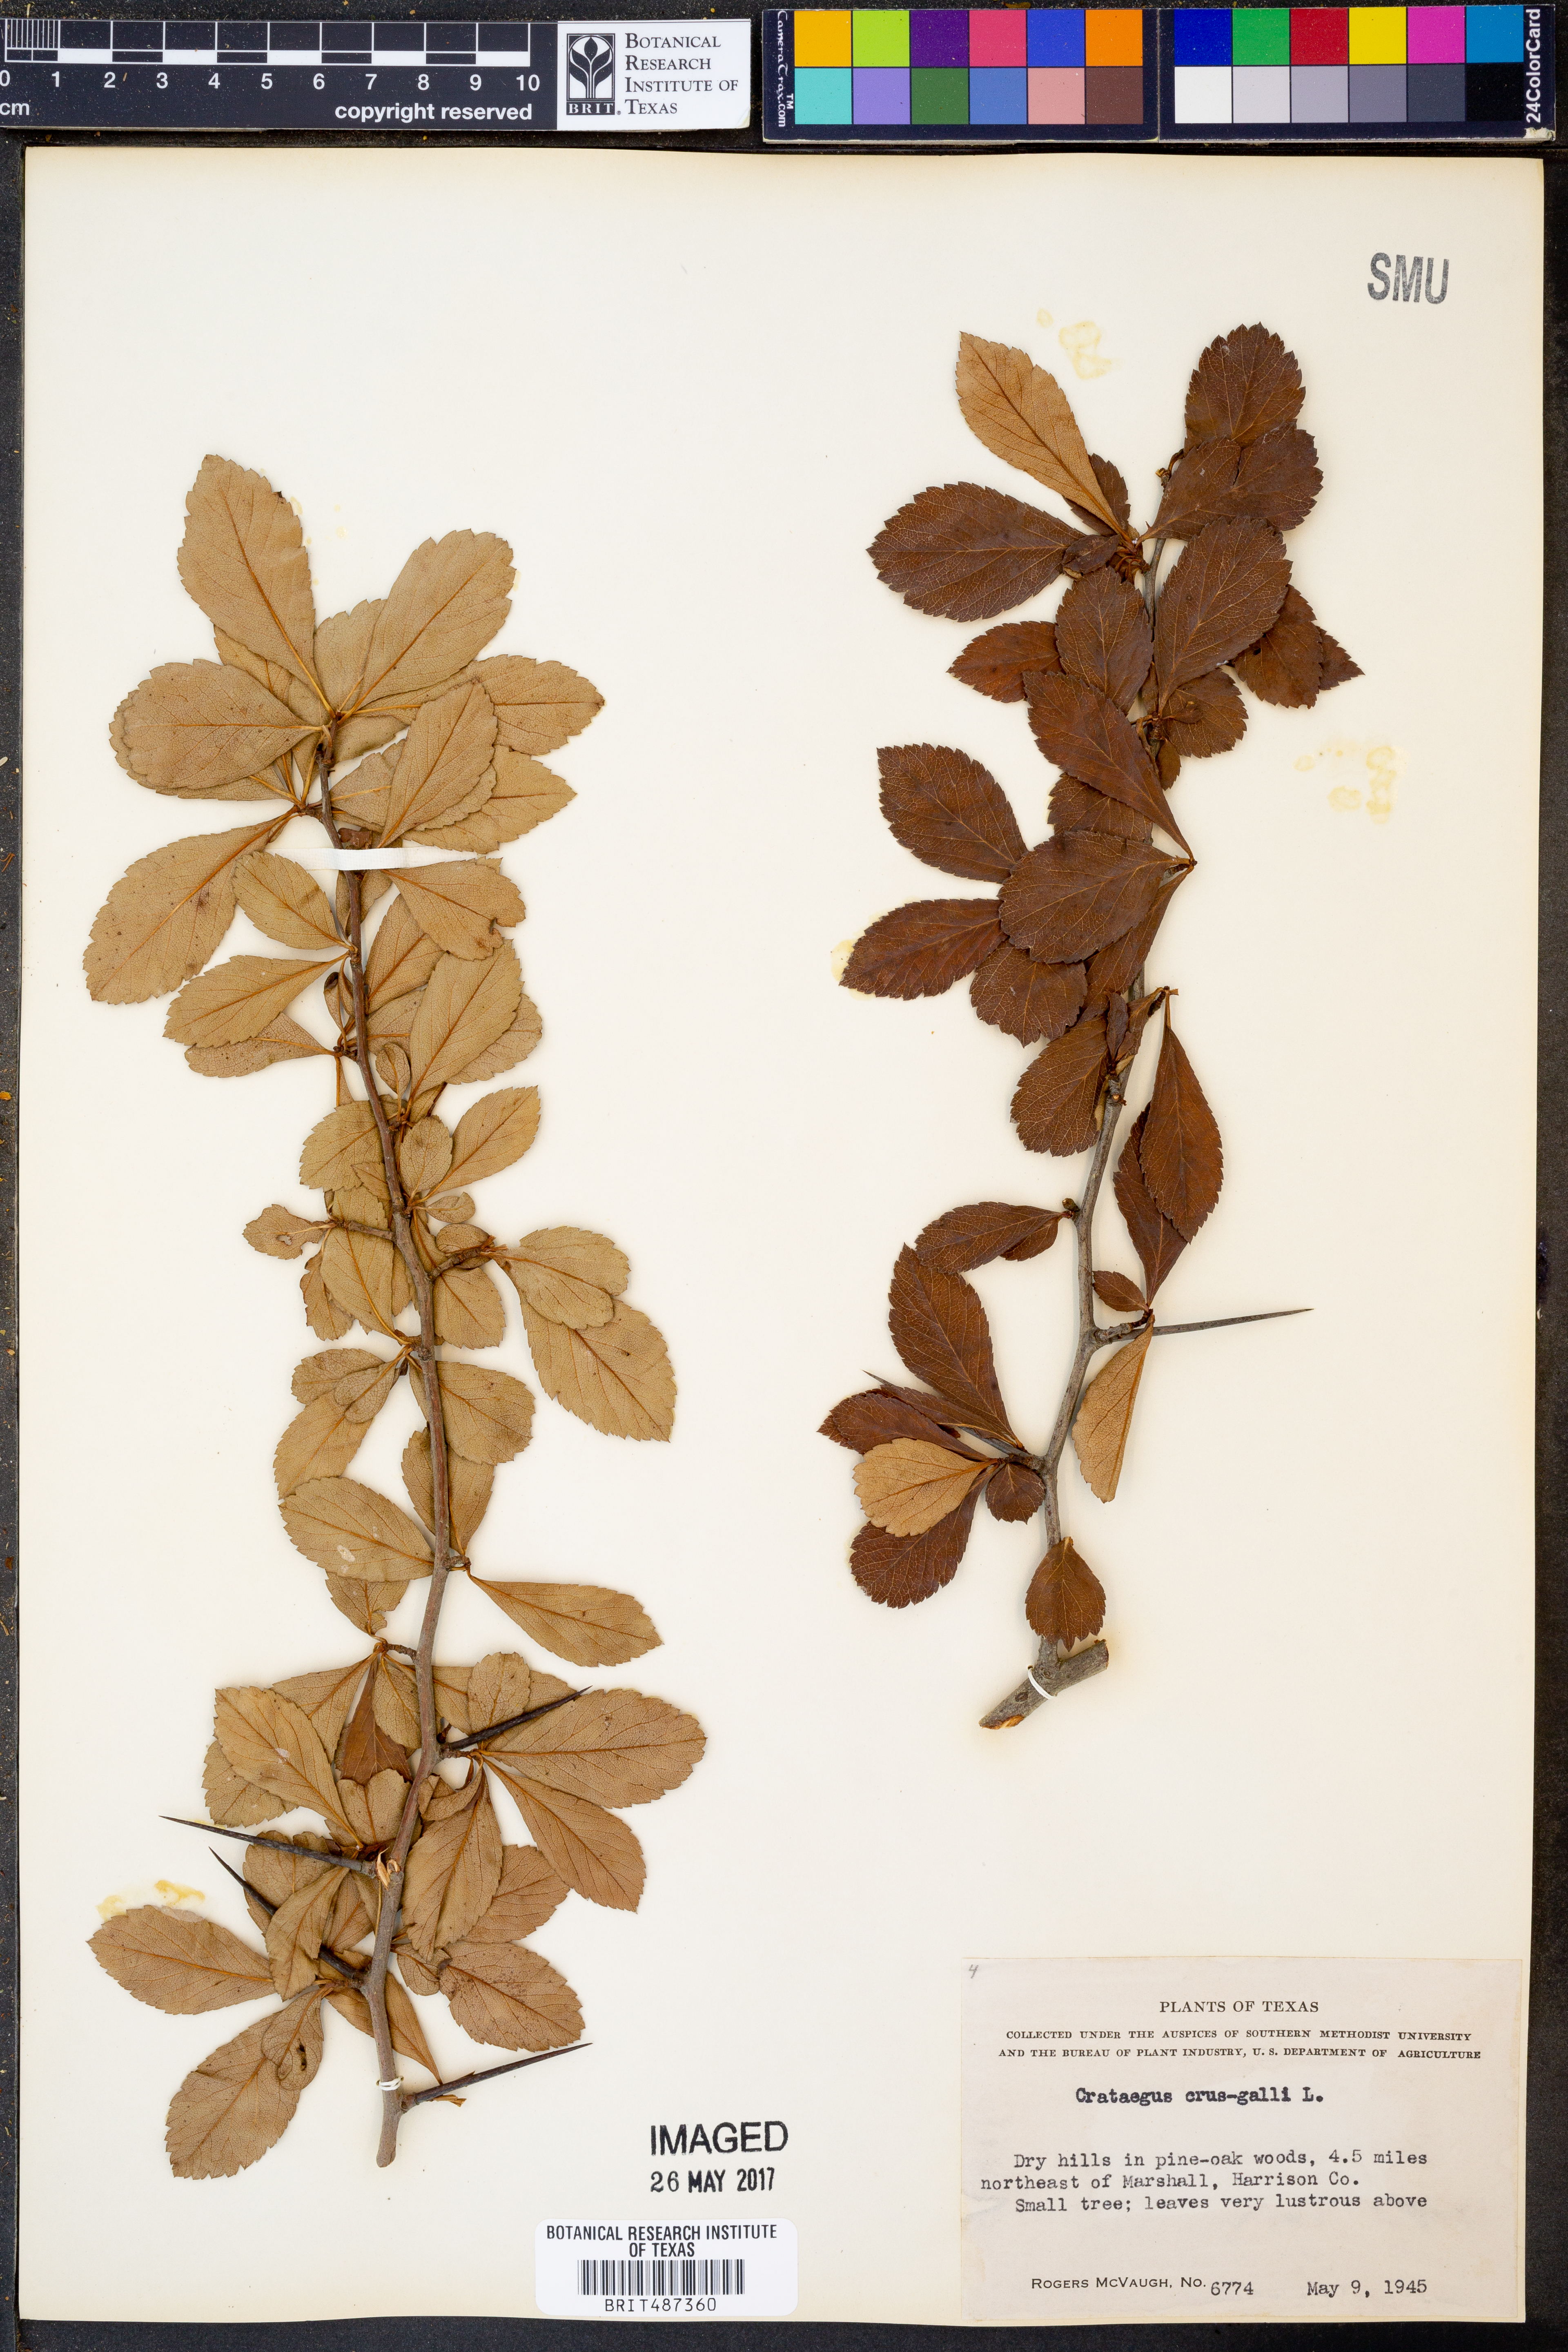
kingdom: Plantae
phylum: Tracheophyta
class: Magnoliopsida
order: Rosales
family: Rosaceae
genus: Crataegus
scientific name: Crataegus crus-galli
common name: Cockspurthorn
